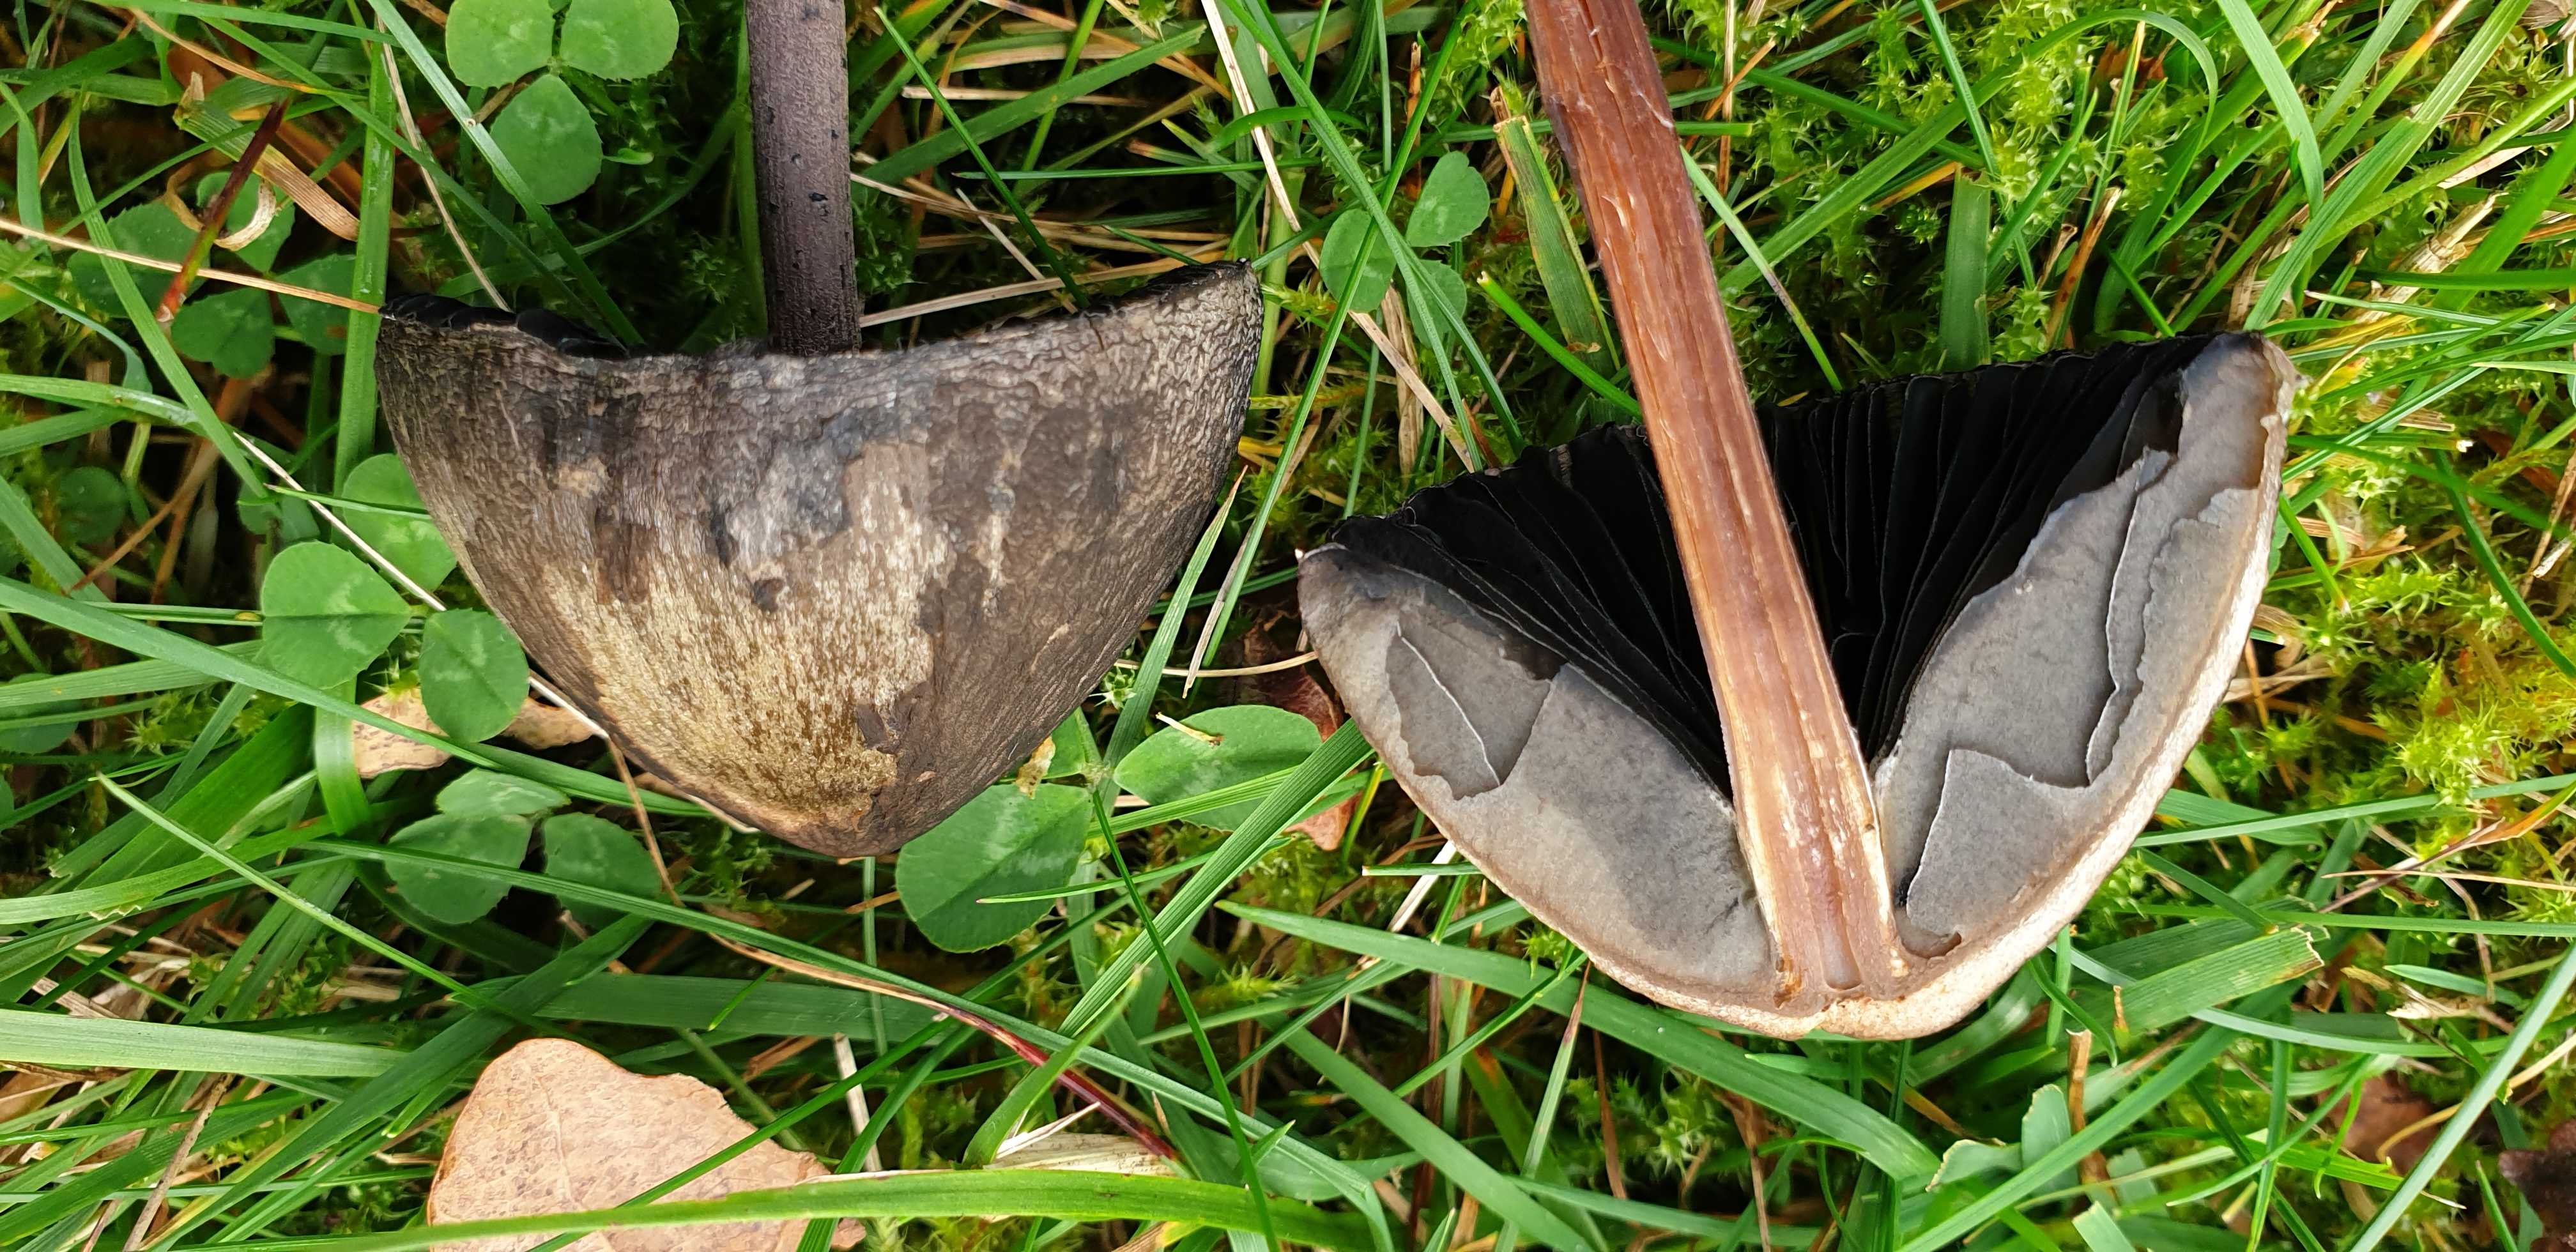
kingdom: Fungi
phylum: Basidiomycota
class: Agaricomycetes
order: Agaricales
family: Bolbitiaceae
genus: Panaeolus
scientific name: Panaeolus
